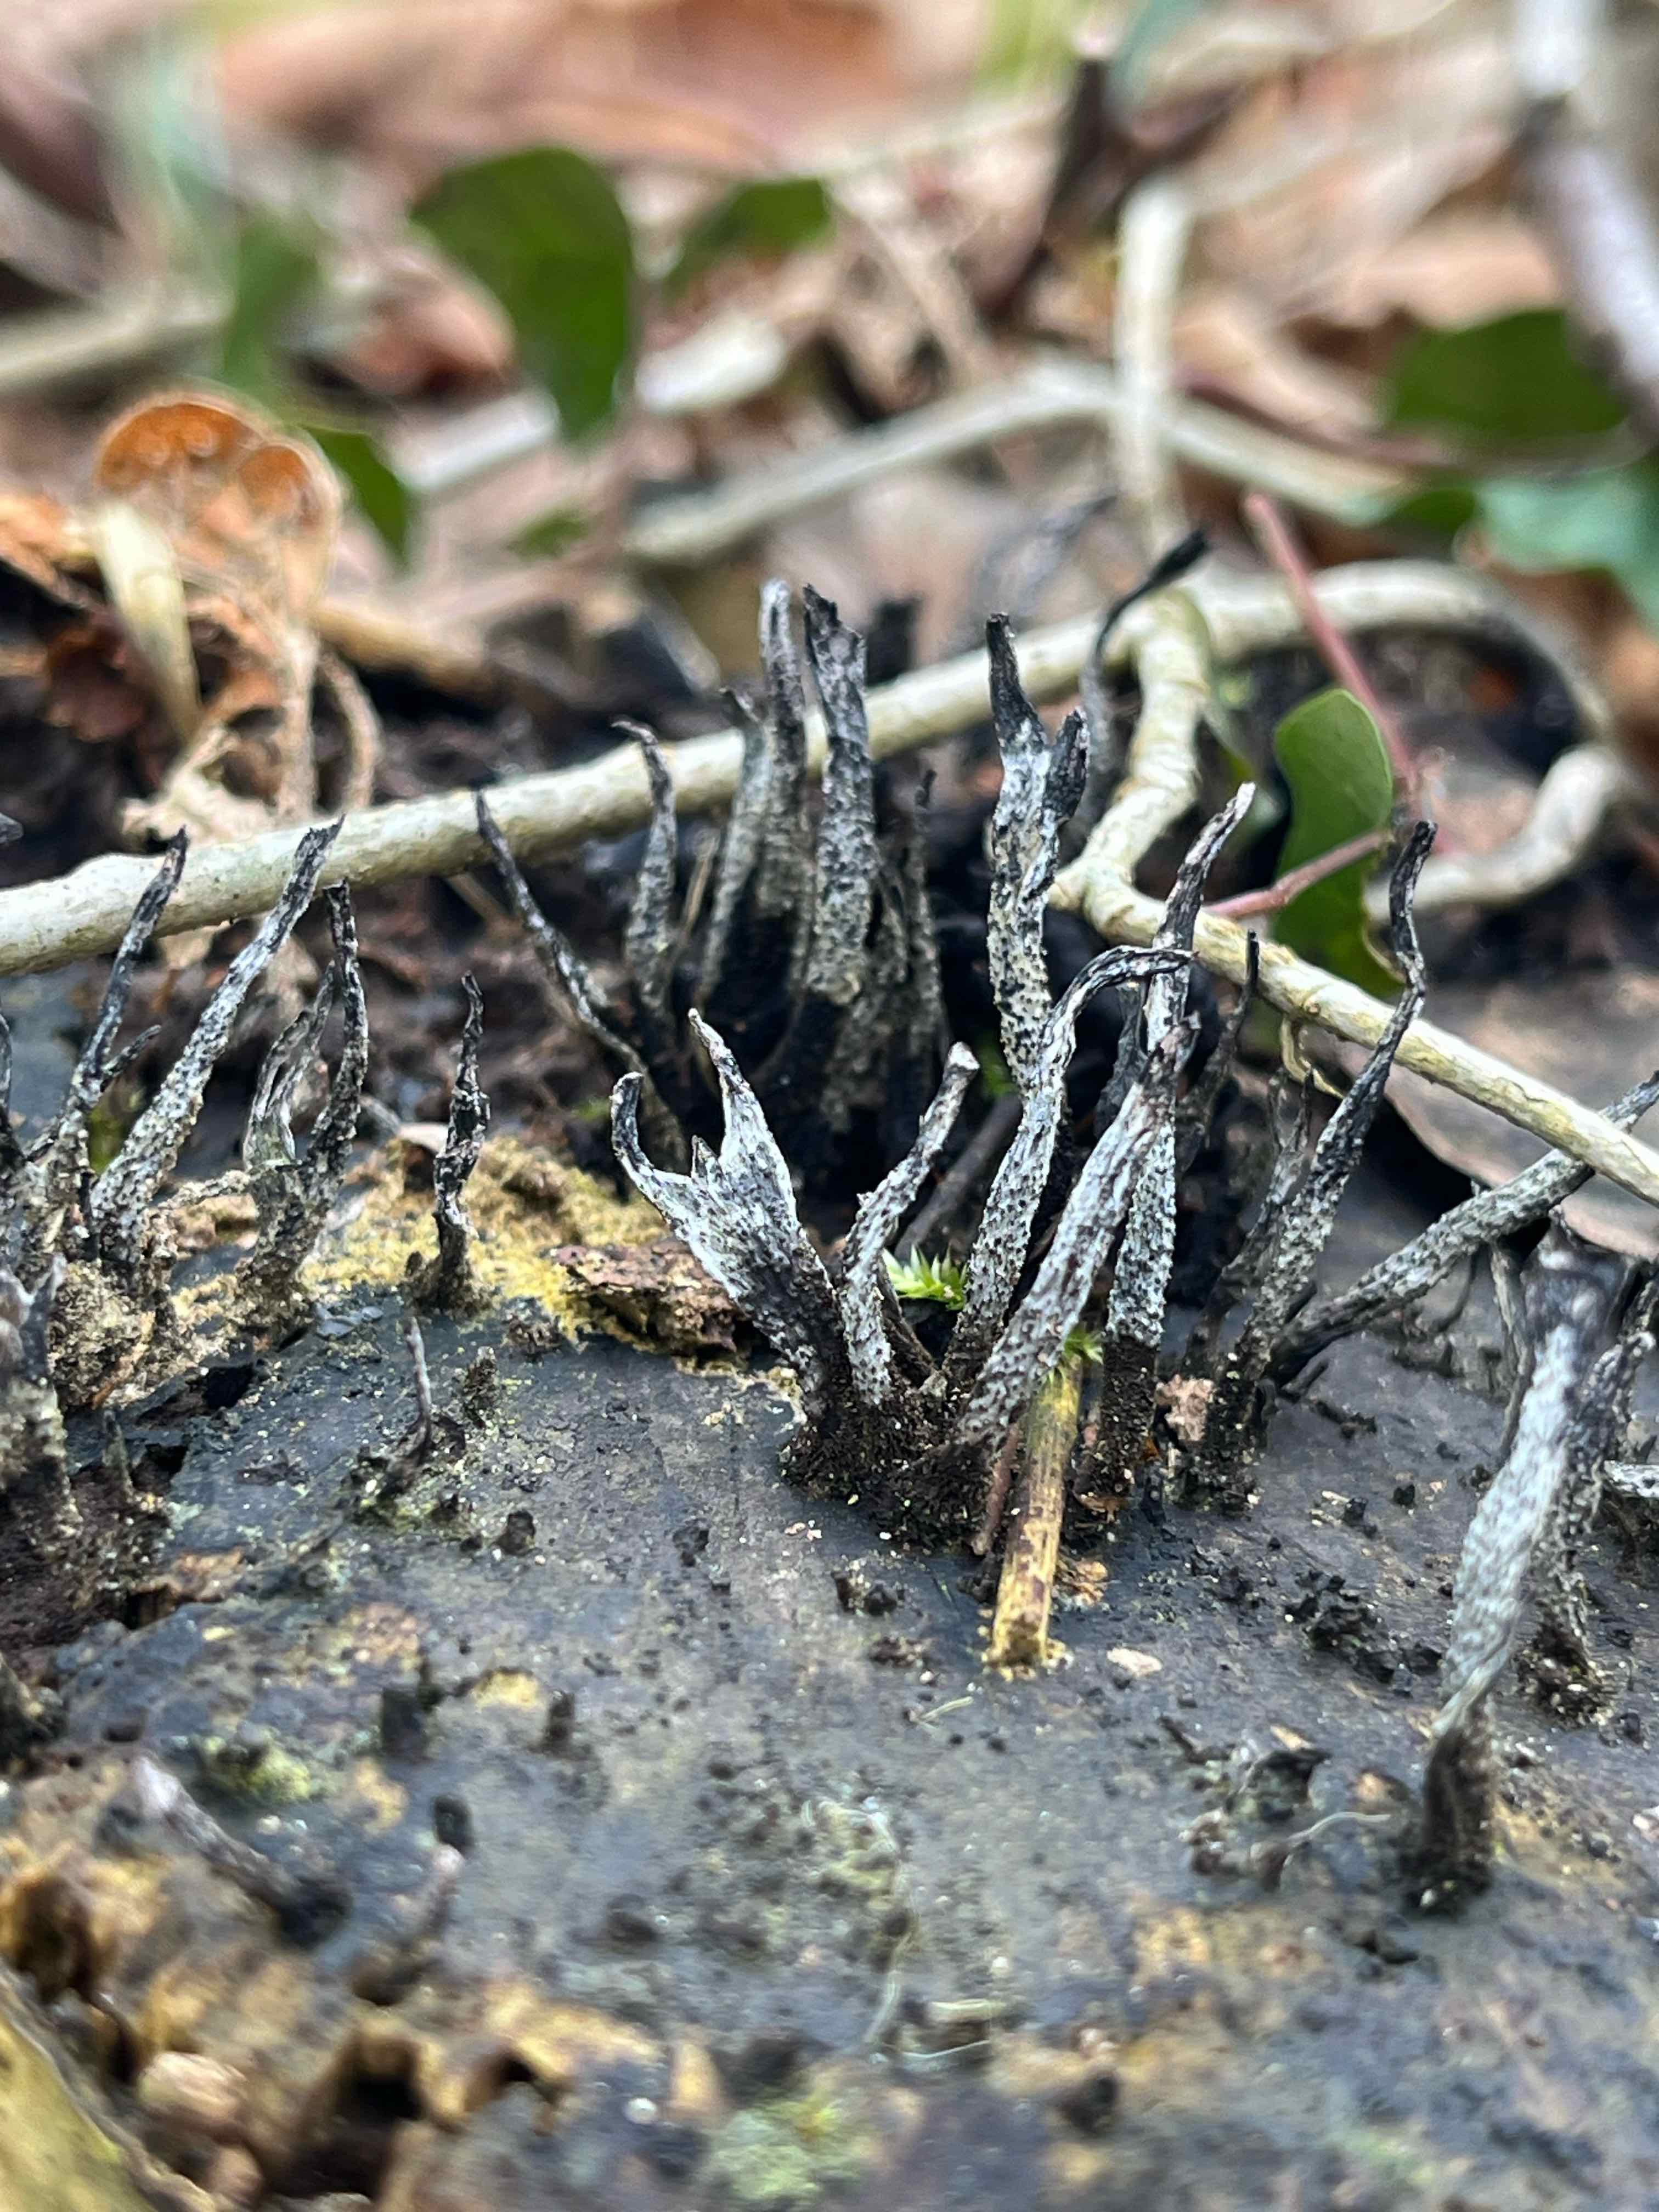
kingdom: Fungi
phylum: Ascomycota
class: Sordariomycetes
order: Xylariales
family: Xylariaceae
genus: Xylaria
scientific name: Xylaria hypoxylon
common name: grenet stødsvamp
